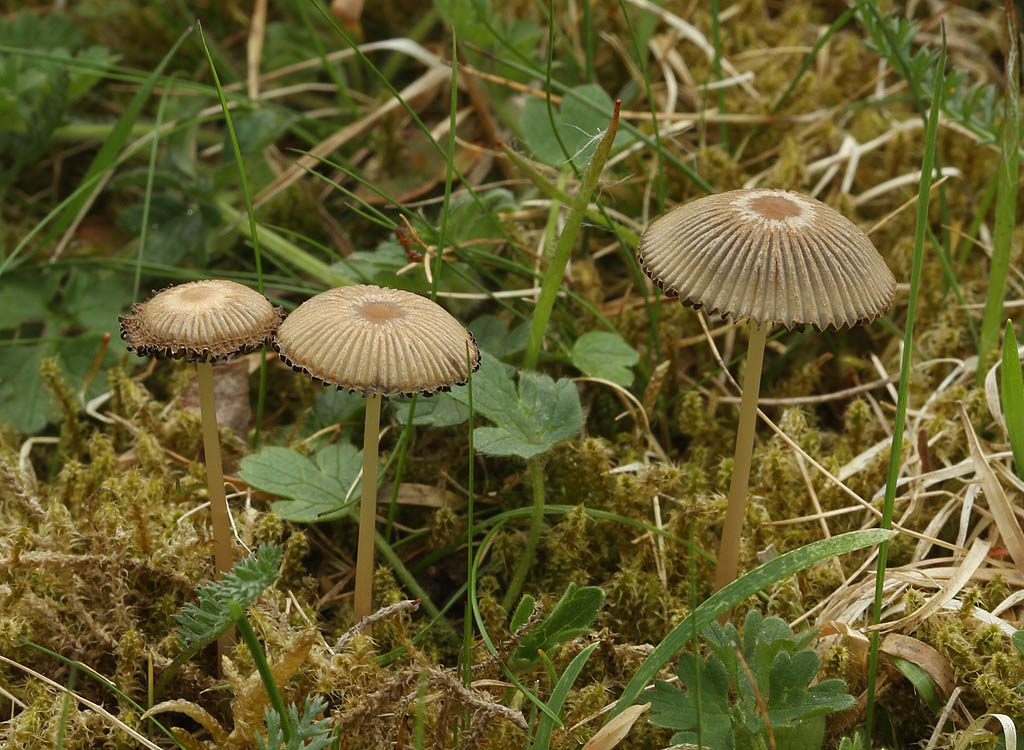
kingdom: Fungi
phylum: Basidiomycota
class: Agaricomycetes
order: Agaricales
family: Psathyrellaceae
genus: Parasola
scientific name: Parasola schroeteri
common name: bredsporet hjulhat
